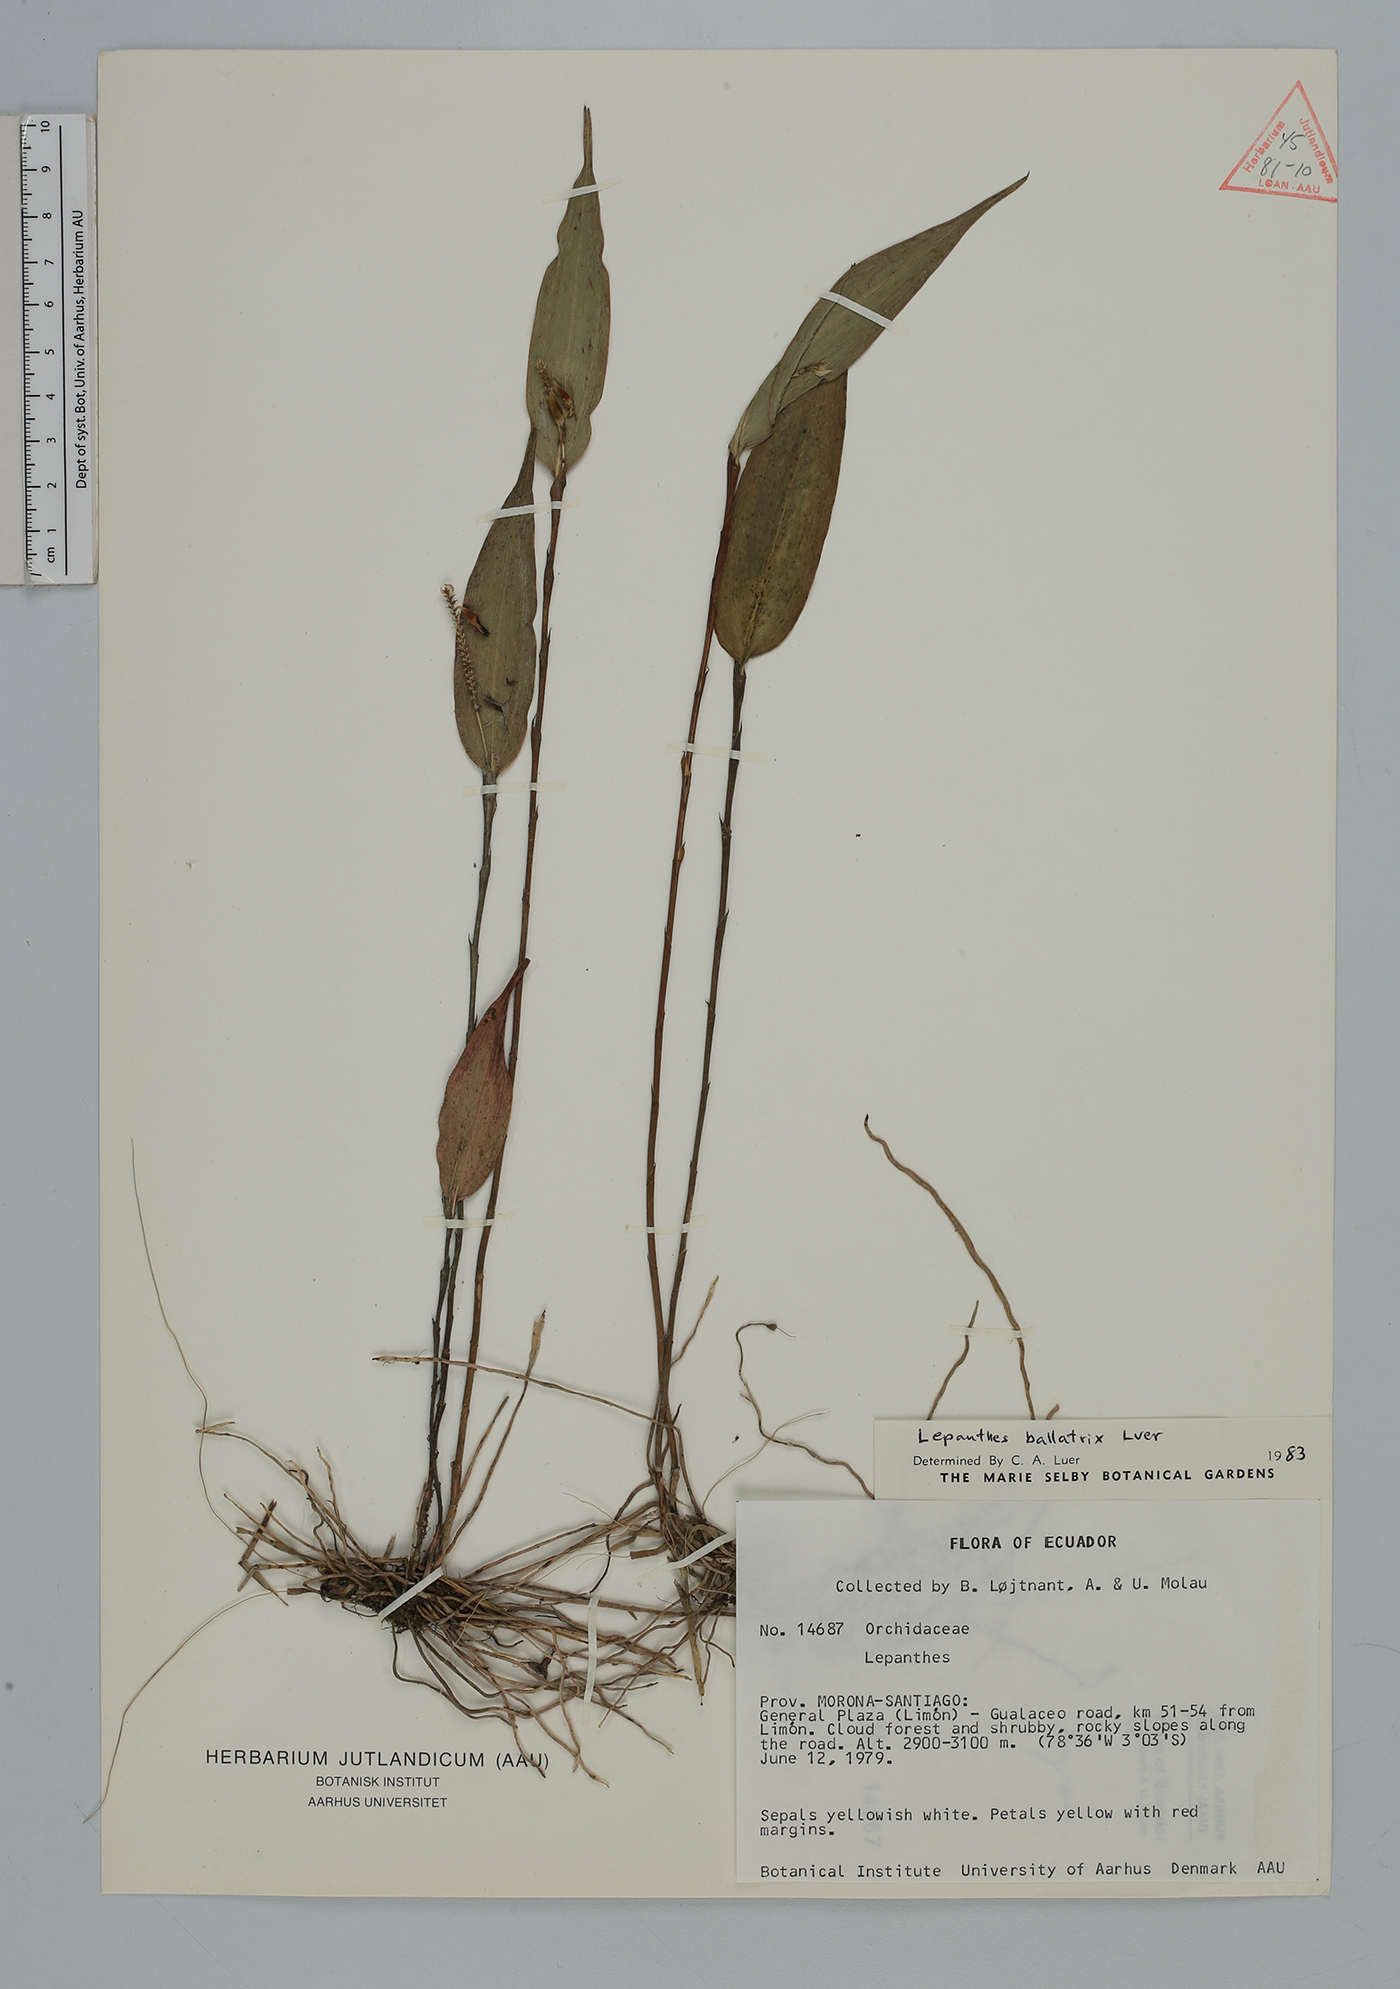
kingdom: Plantae
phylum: Tracheophyta
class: Liliopsida
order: Asparagales
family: Orchidaceae
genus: Lepanthes
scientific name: Lepanthes
